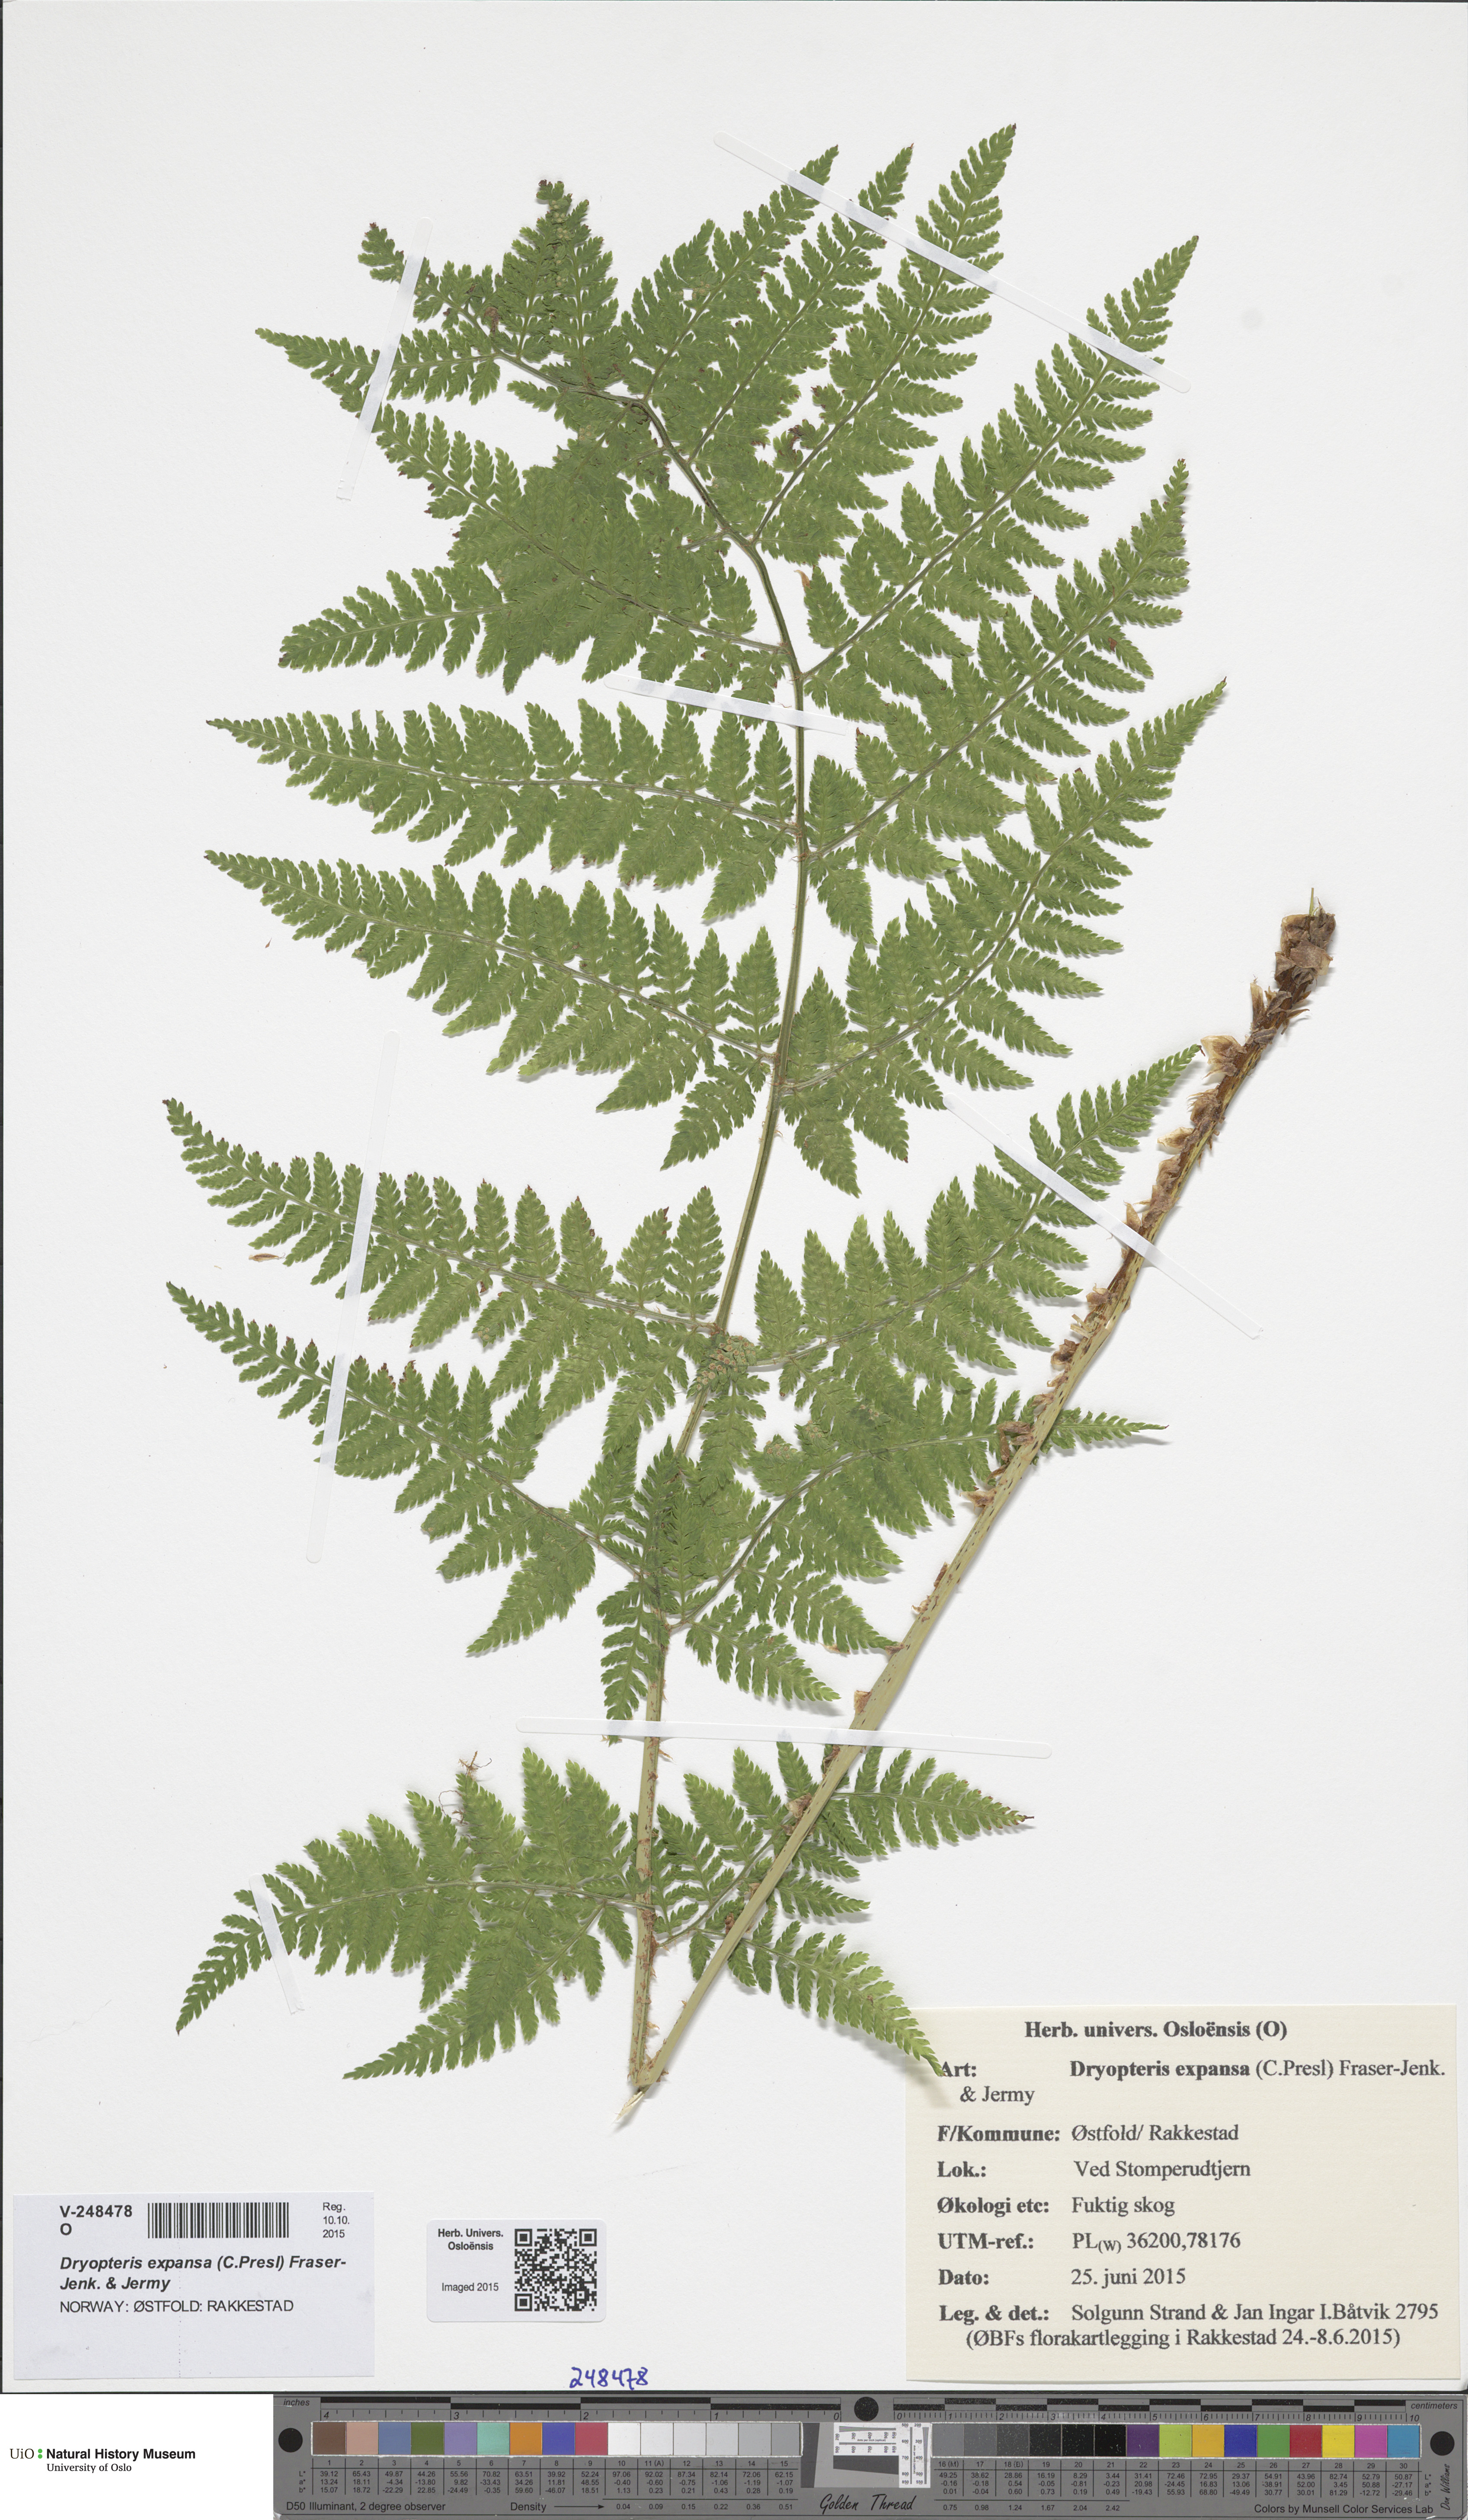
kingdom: Plantae
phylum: Tracheophyta
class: Polypodiopsida
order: Polypodiales
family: Dryopteridaceae
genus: Dryopteris
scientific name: Dryopteris expansa
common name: Northern buckler fern
